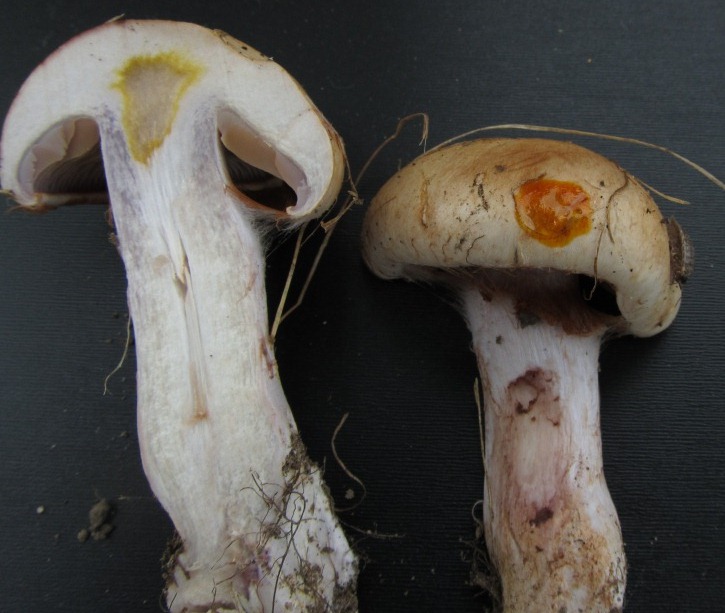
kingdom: Fungi
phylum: Basidiomycota
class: Agaricomycetes
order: Agaricales
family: Cortinariaceae
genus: Cortinarius
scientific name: Cortinarius largus
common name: violetrandet slørhat
